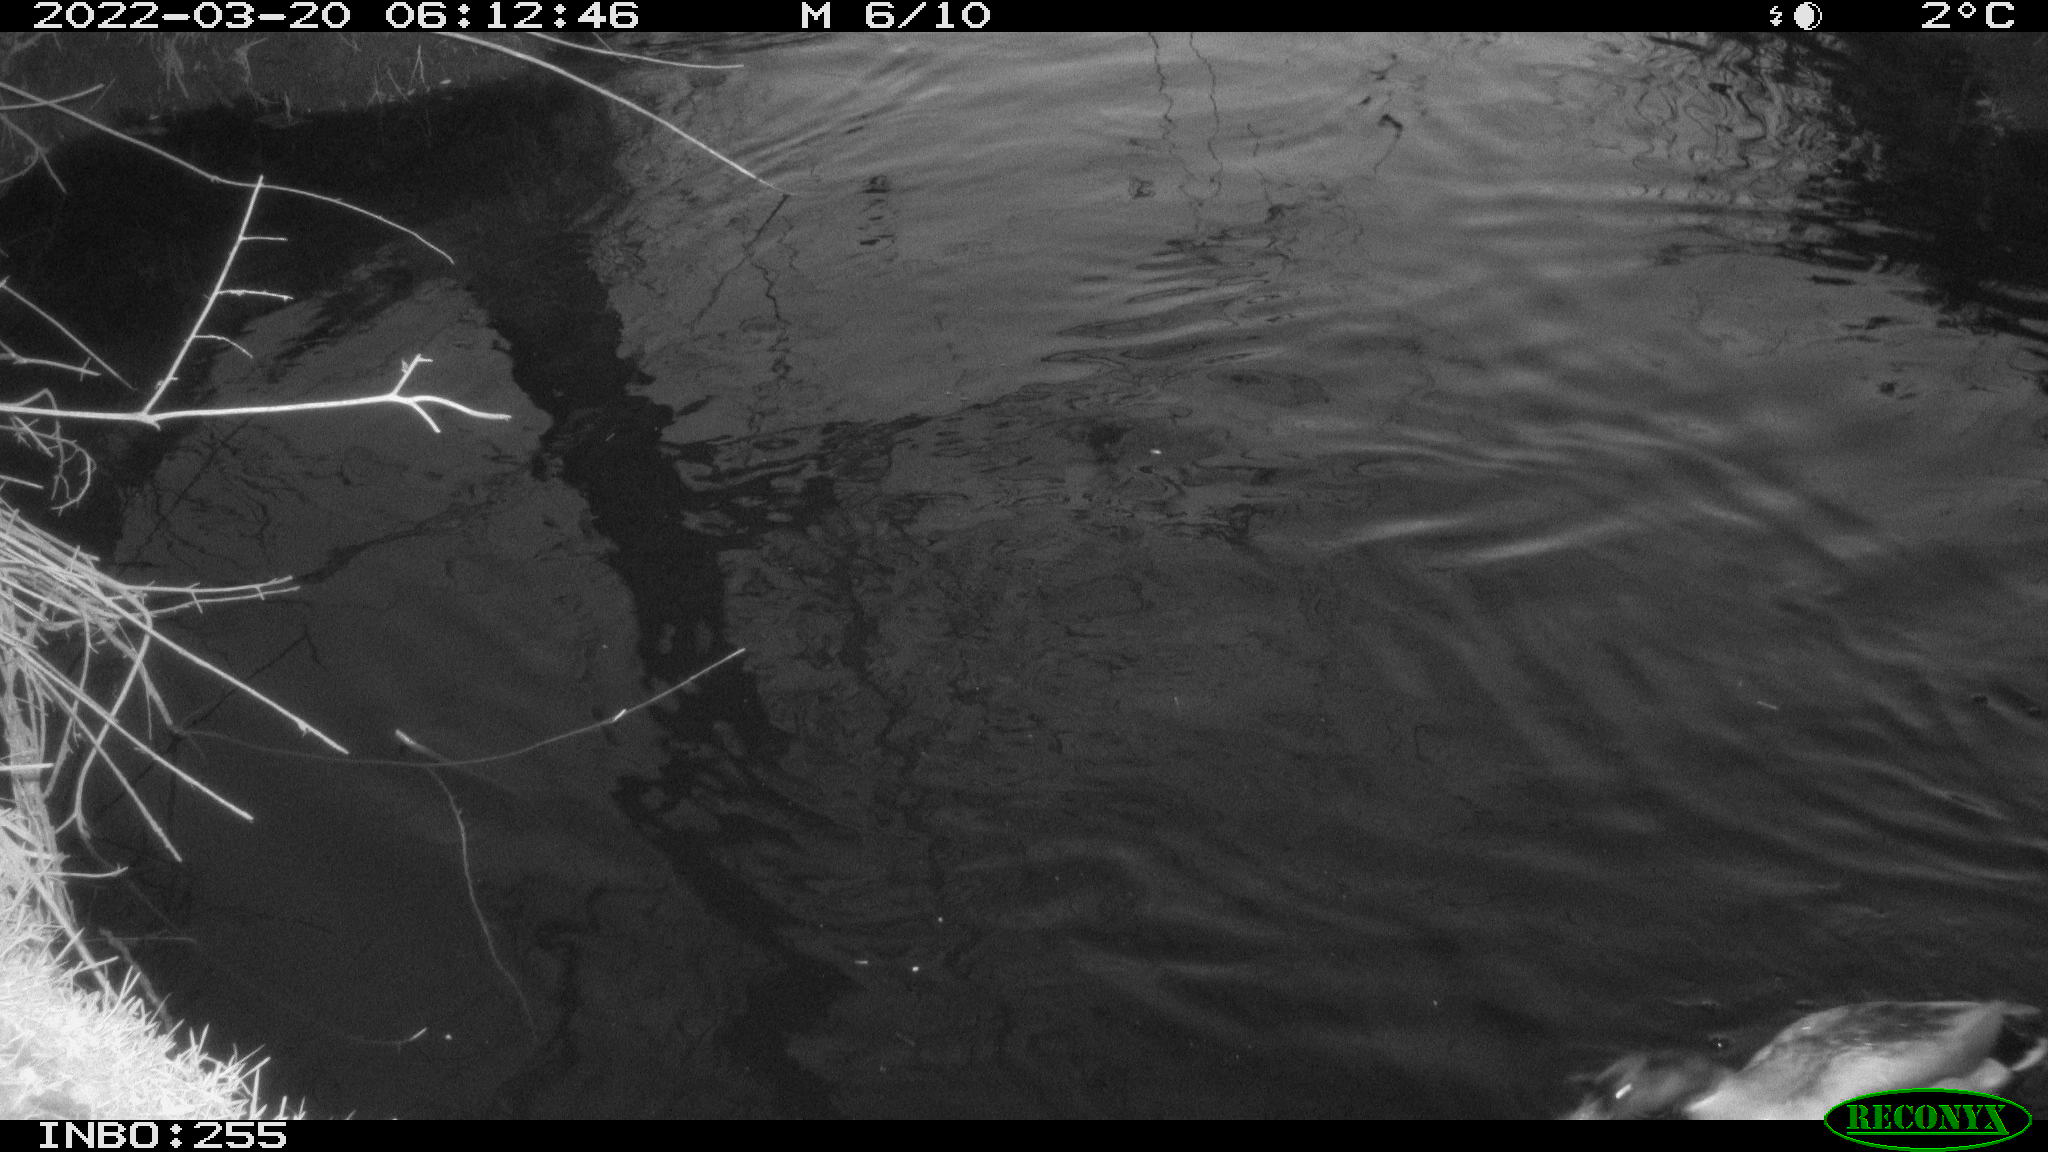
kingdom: Animalia
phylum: Chordata
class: Aves
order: Gruiformes
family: Rallidae
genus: Gallinula
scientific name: Gallinula chloropus
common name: Common moorhen
